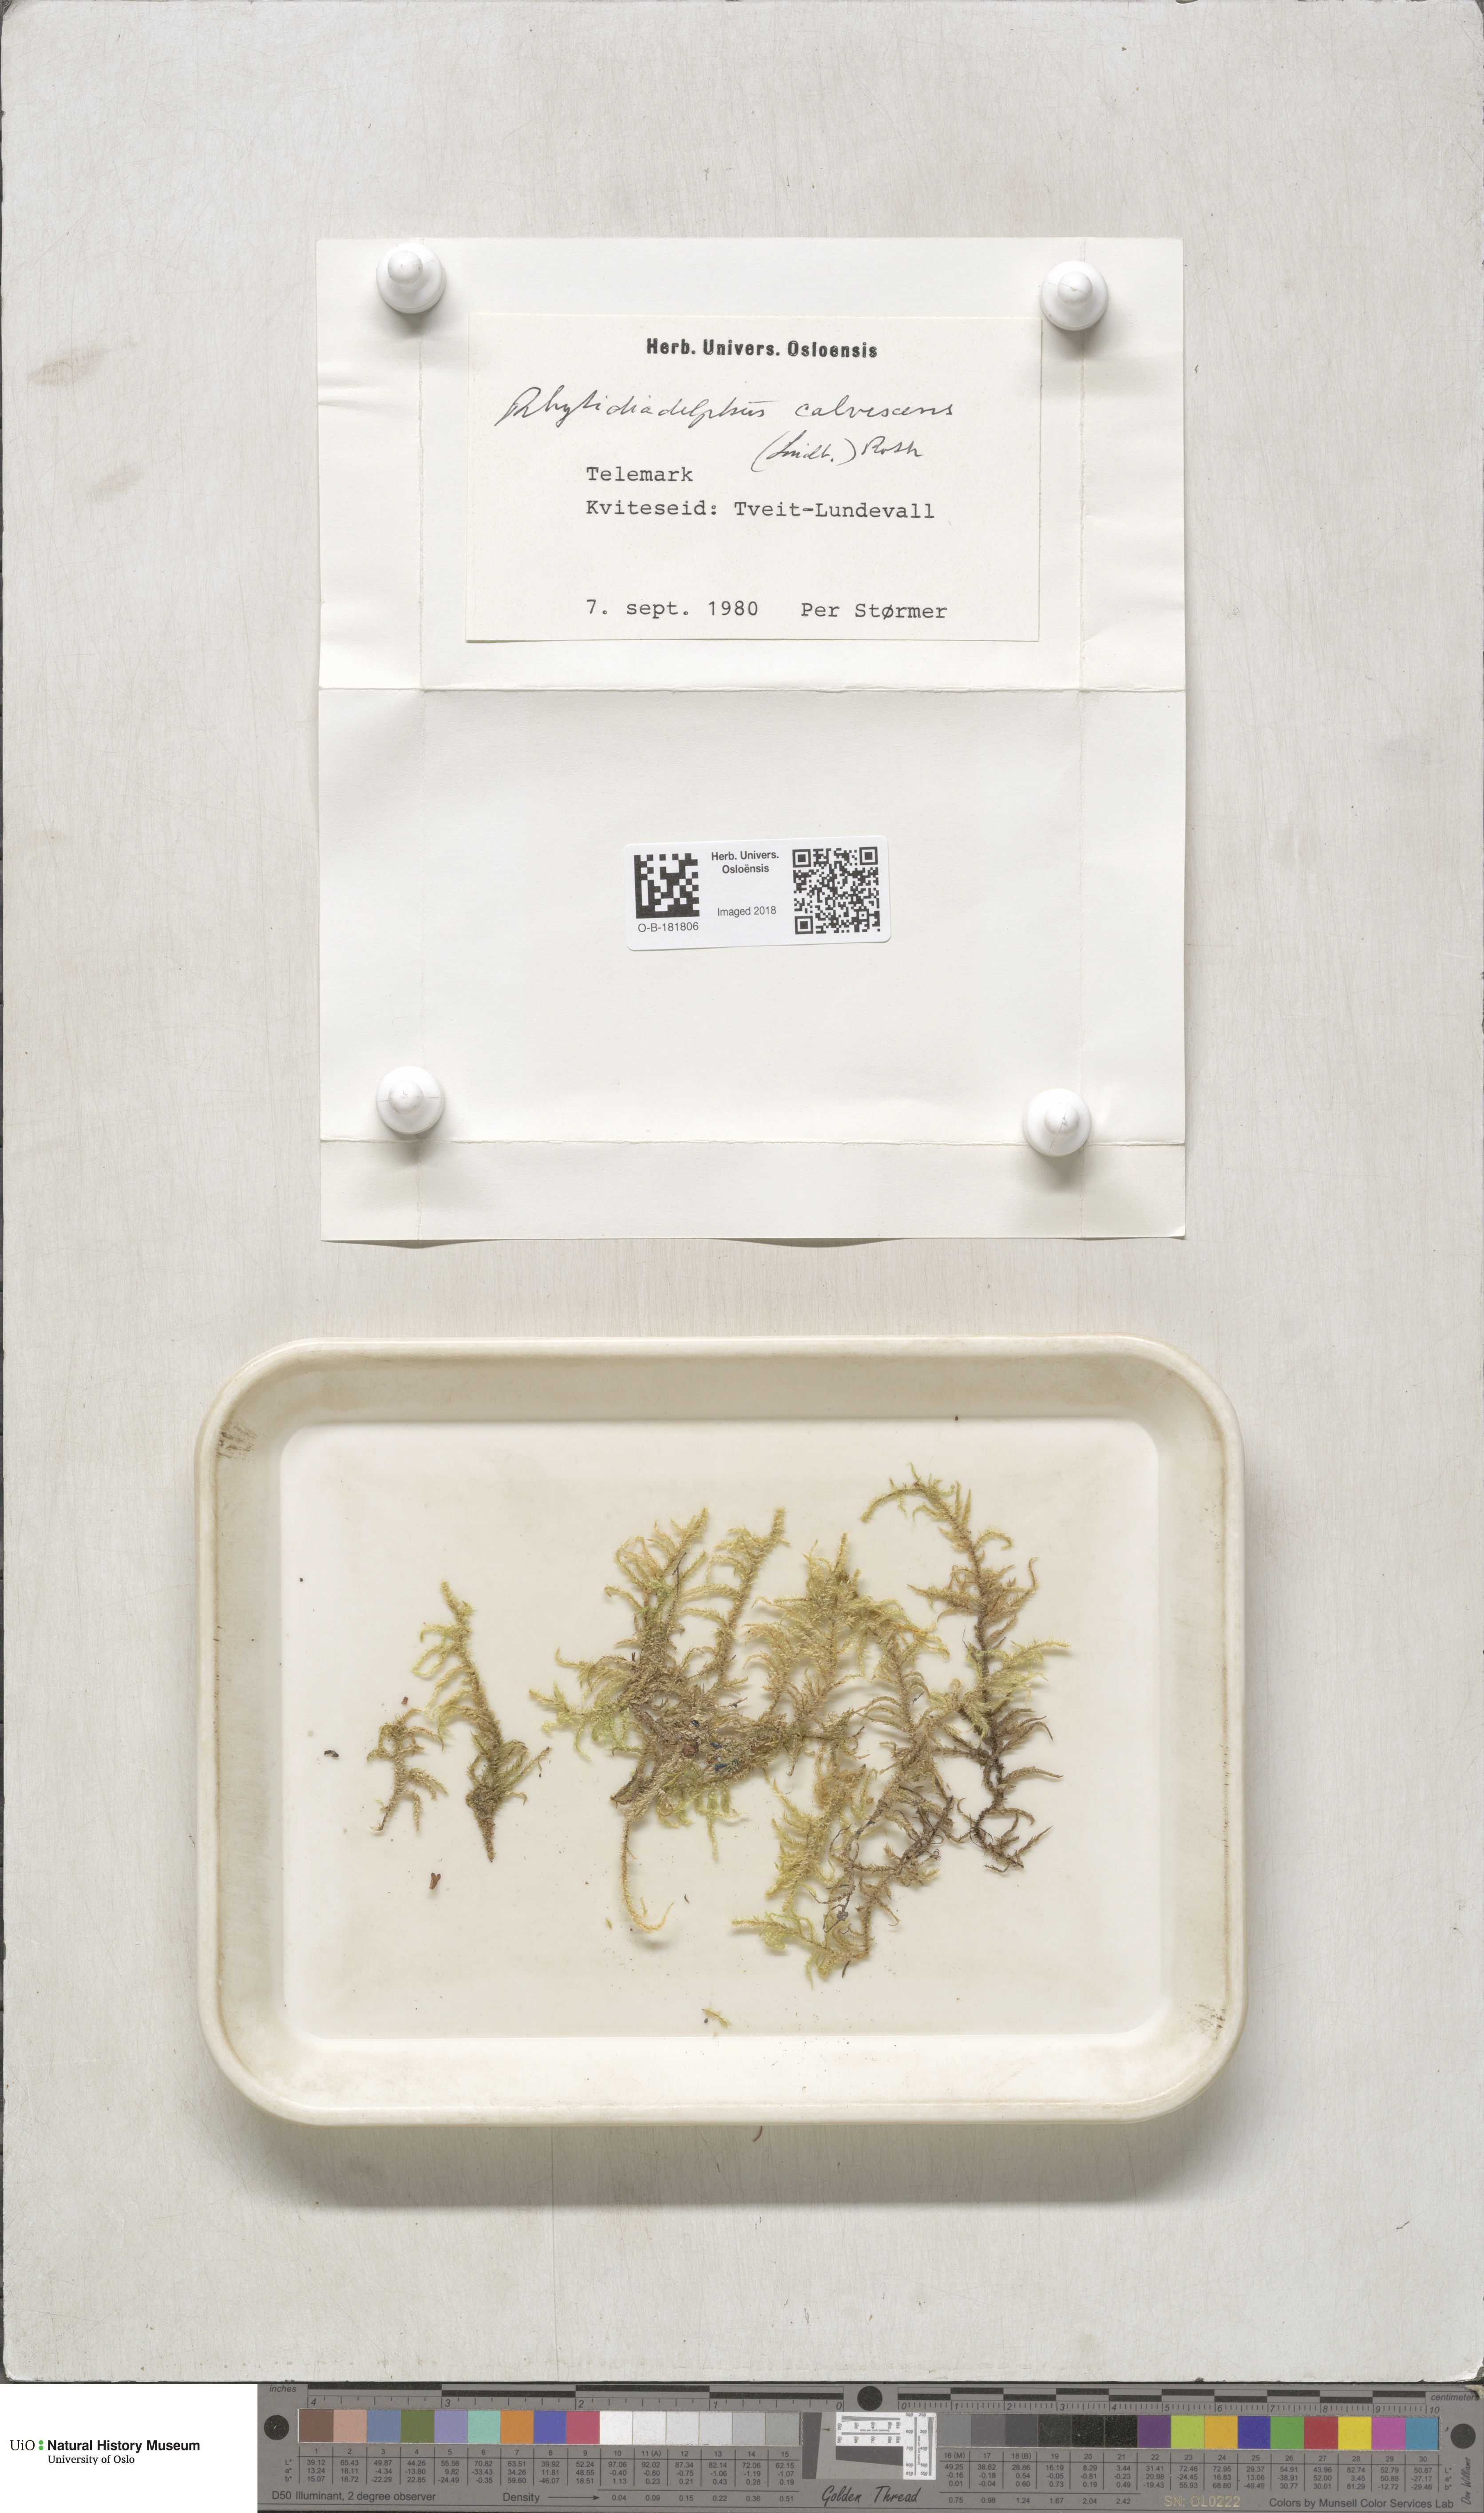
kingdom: Plantae
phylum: Bryophyta
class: Bryopsida
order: Hypnales
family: Hylocomiaceae
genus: Rhytidiadelphus
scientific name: Rhytidiadelphus subpinnatus
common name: Subpinnate gooseneck moss
